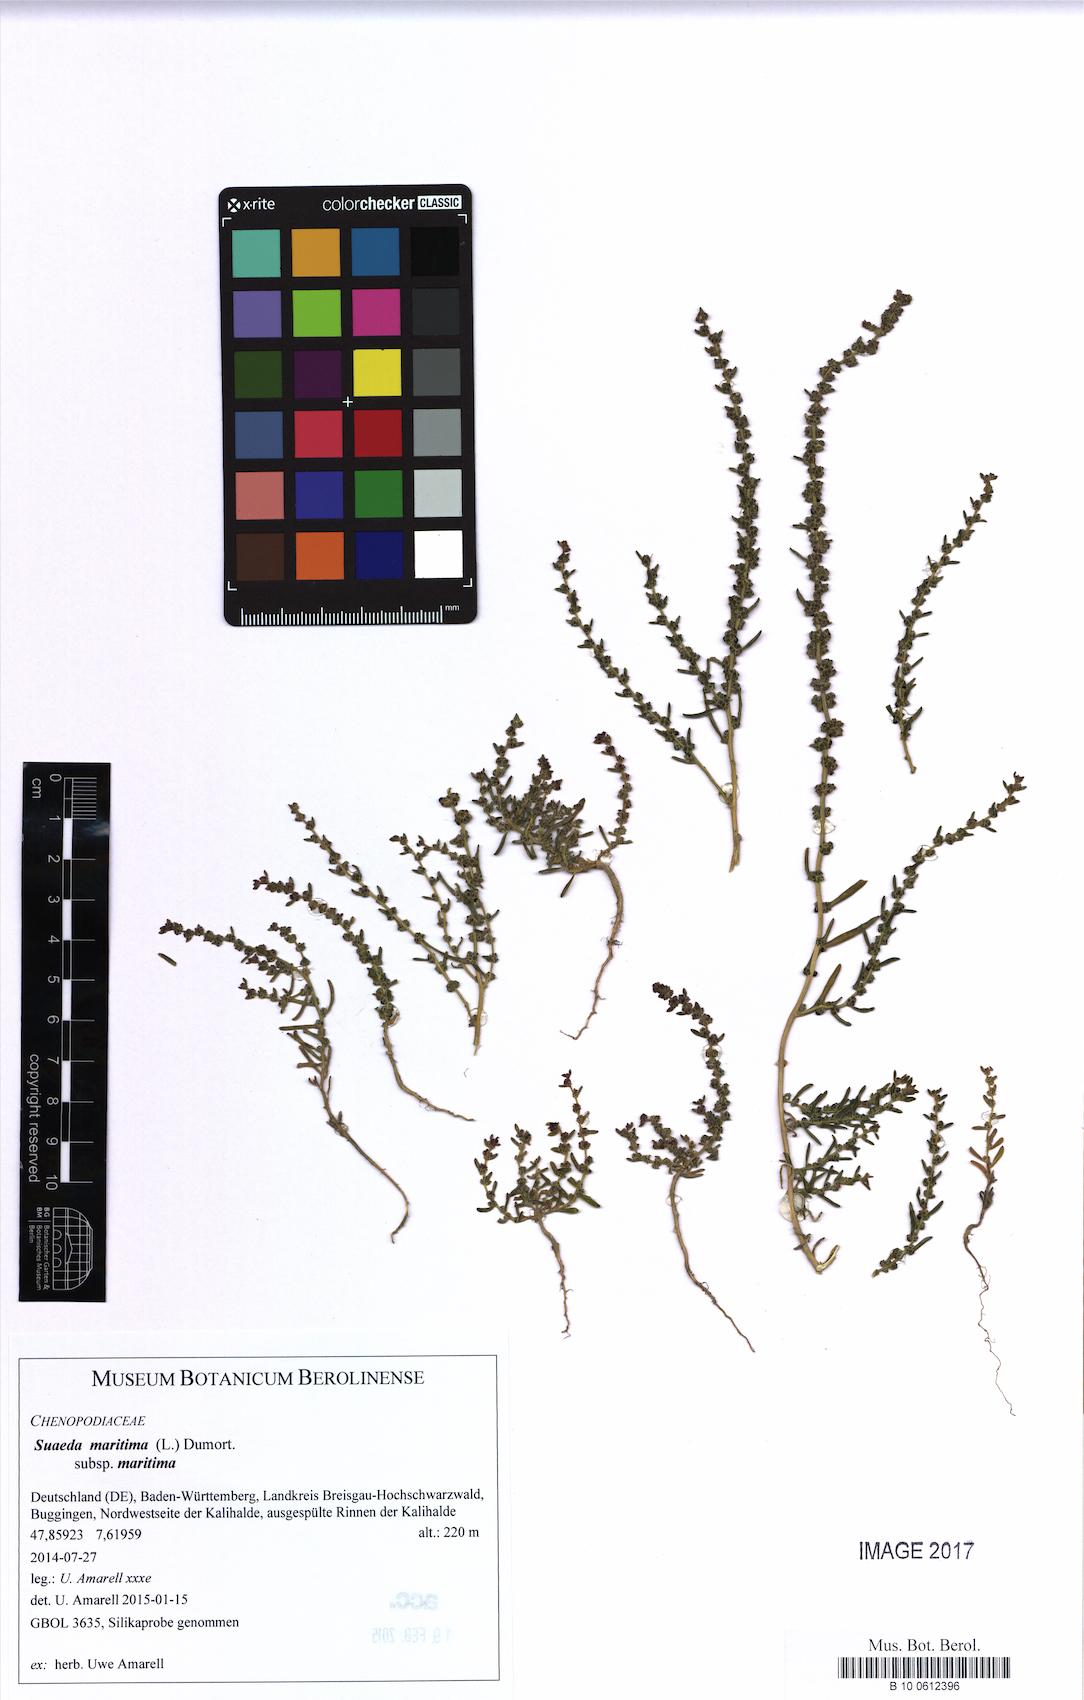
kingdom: Plantae
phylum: Tracheophyta
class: Magnoliopsida
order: Caryophyllales
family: Amaranthaceae
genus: Suaeda
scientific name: Suaeda maritima
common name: Annual sea-blite
